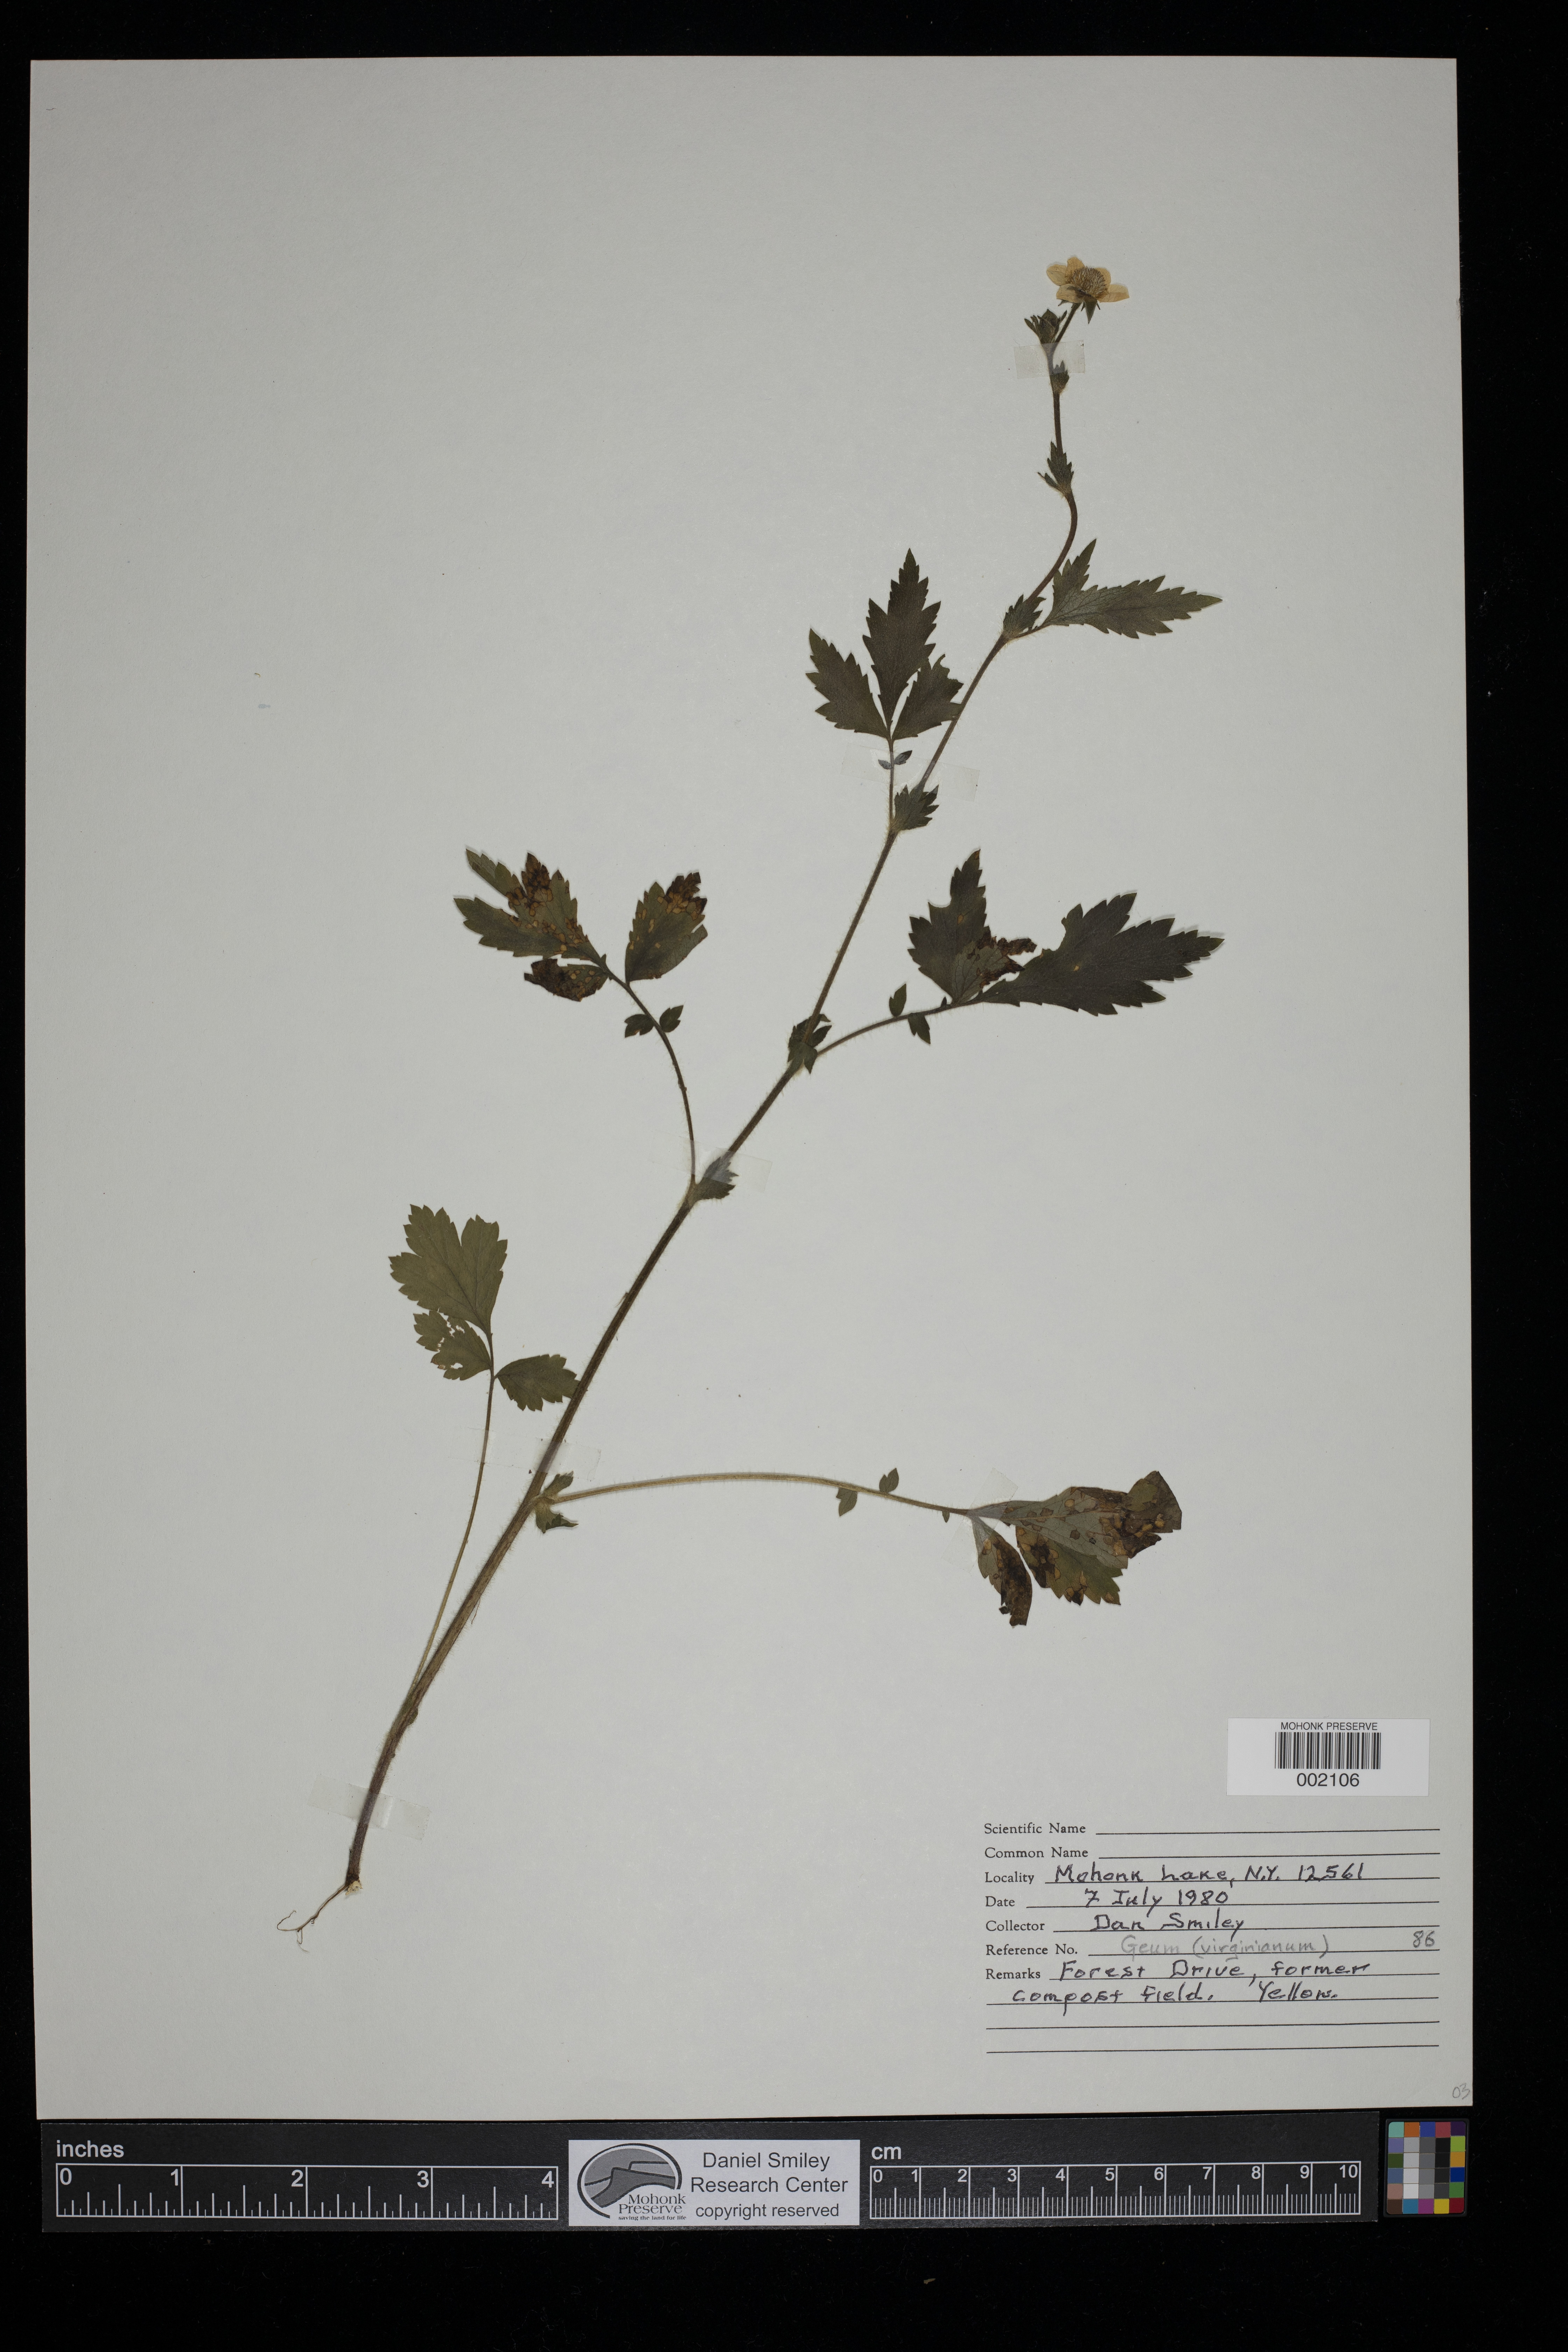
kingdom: Plantae
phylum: Tracheophyta
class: Magnoliopsida
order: Rosales
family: Rosaceae
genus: Geum
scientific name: Geum virginianum
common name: Cream avens
